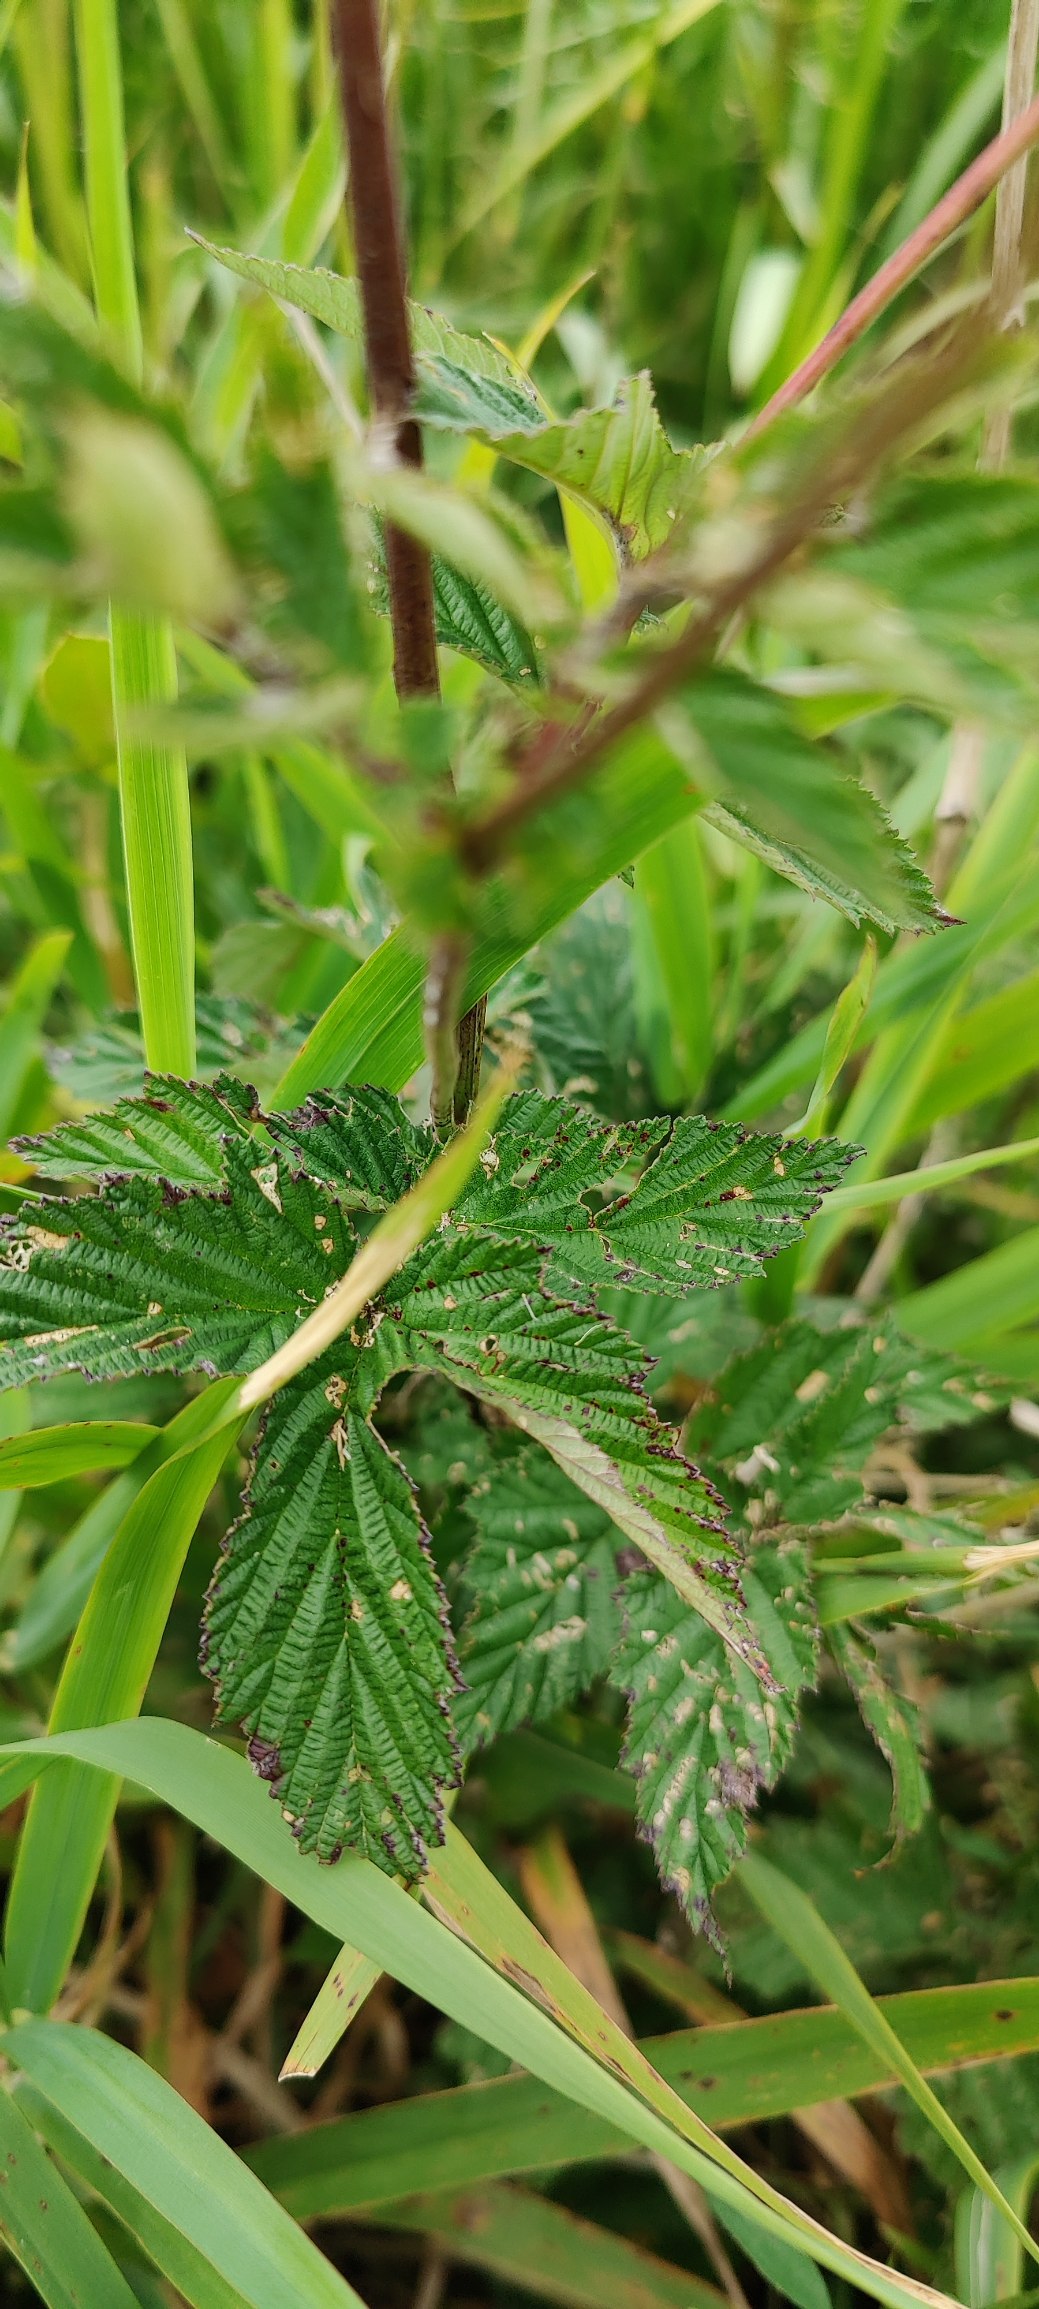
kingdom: Plantae
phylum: Tracheophyta
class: Magnoliopsida
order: Rosales
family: Rosaceae
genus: Filipendula
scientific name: Filipendula ulmaria
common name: Almindelig mjødurt
